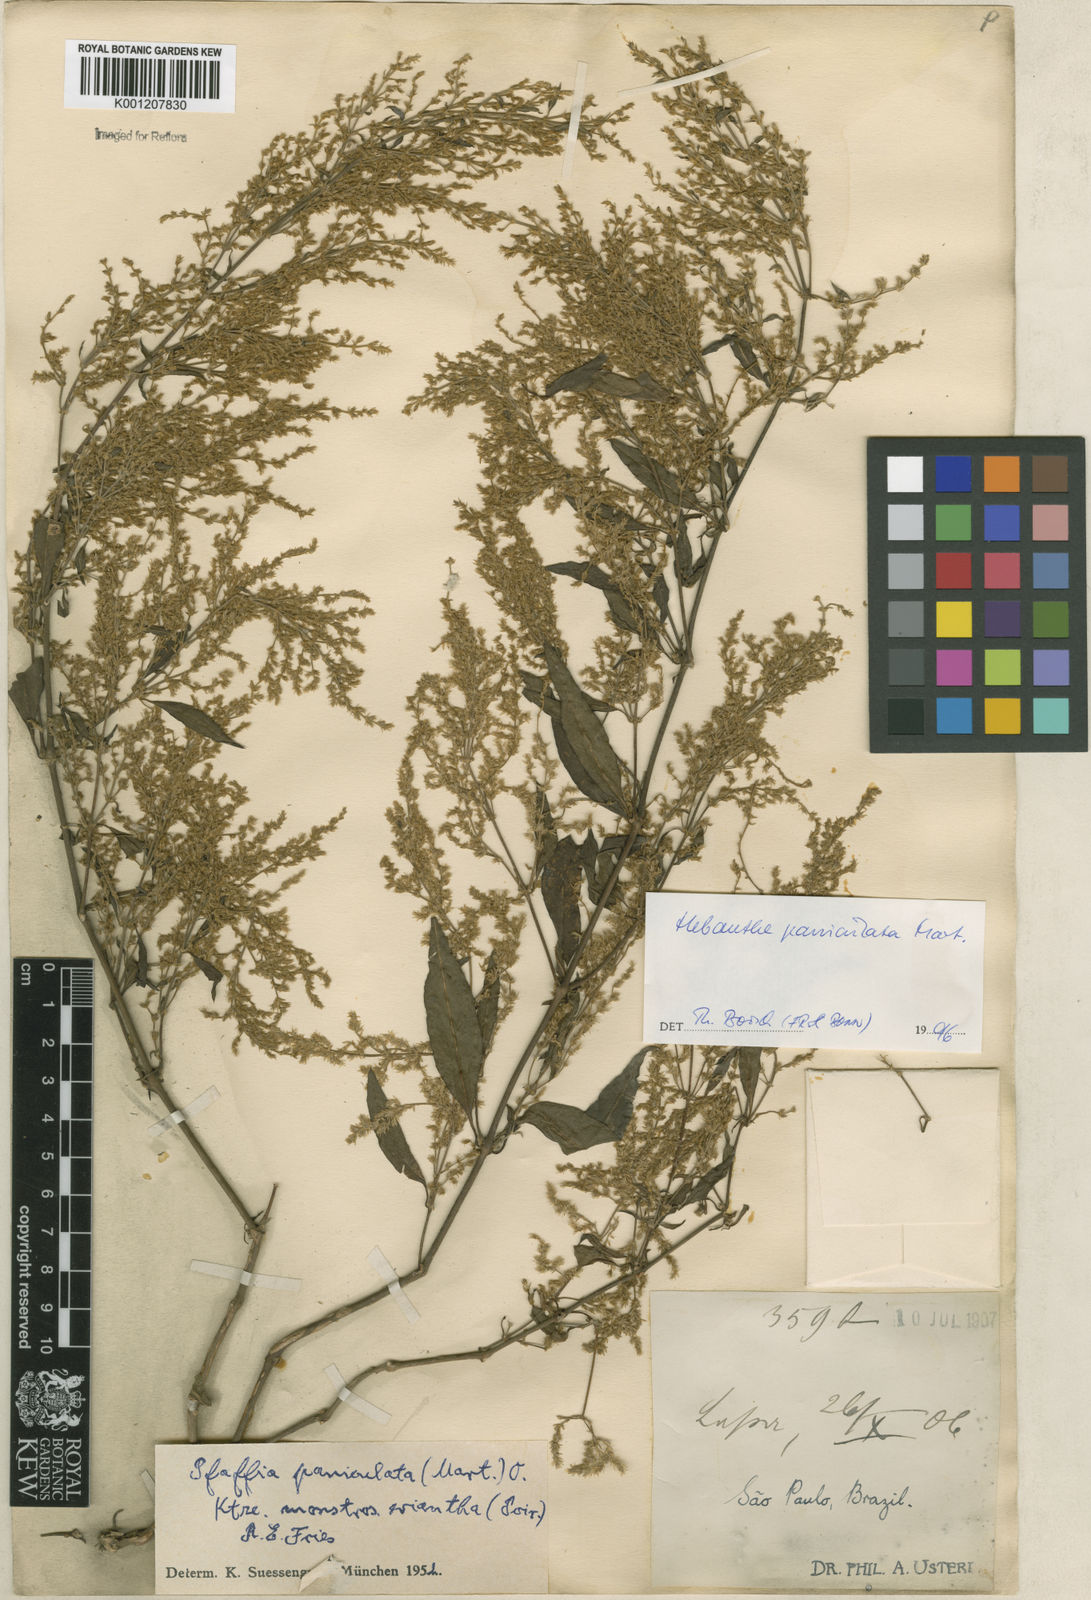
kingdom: Plantae
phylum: Tracheophyta
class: Magnoliopsida
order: Caryophyllales
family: Amaranthaceae
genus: Hebanthe
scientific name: Hebanthe erianthos
